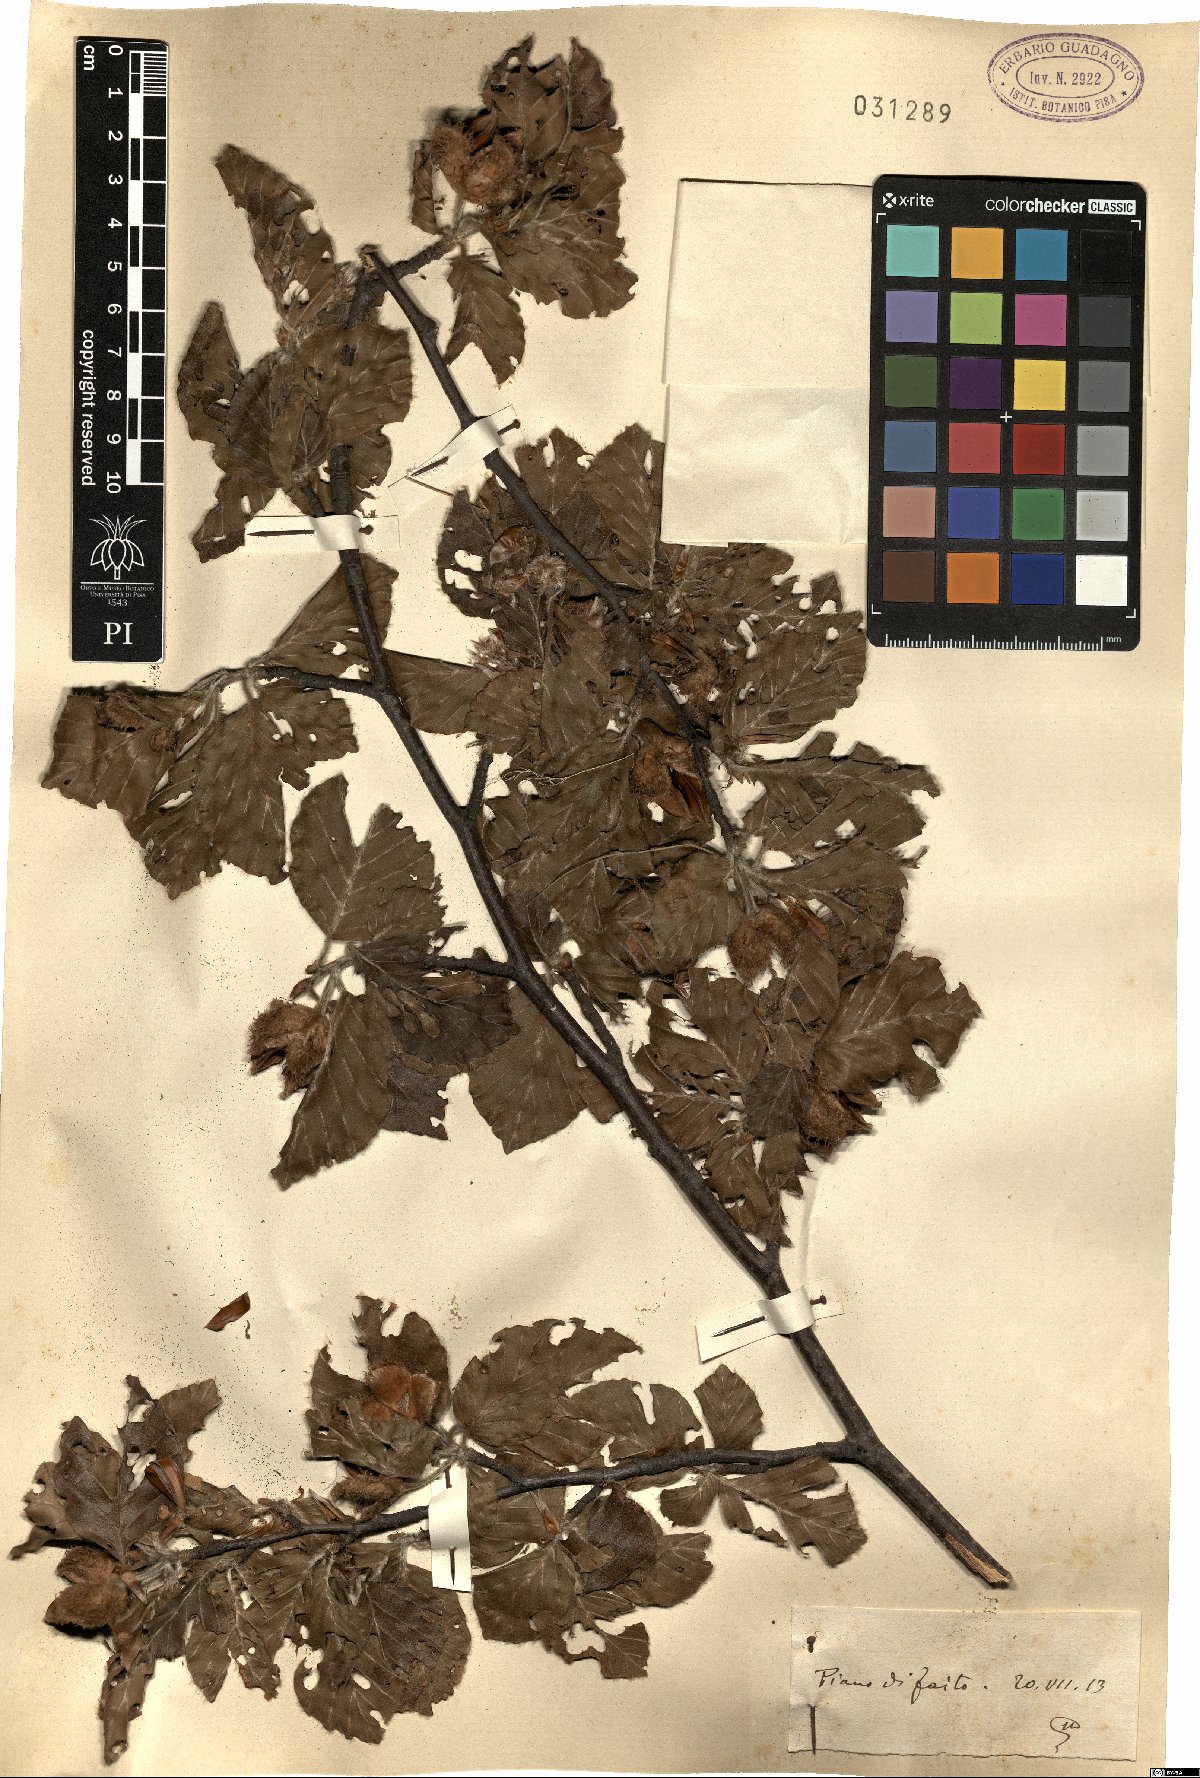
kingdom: Plantae
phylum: Tracheophyta
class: Magnoliopsida
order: Fagales
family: Fagaceae
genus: Fagus
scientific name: Fagus
